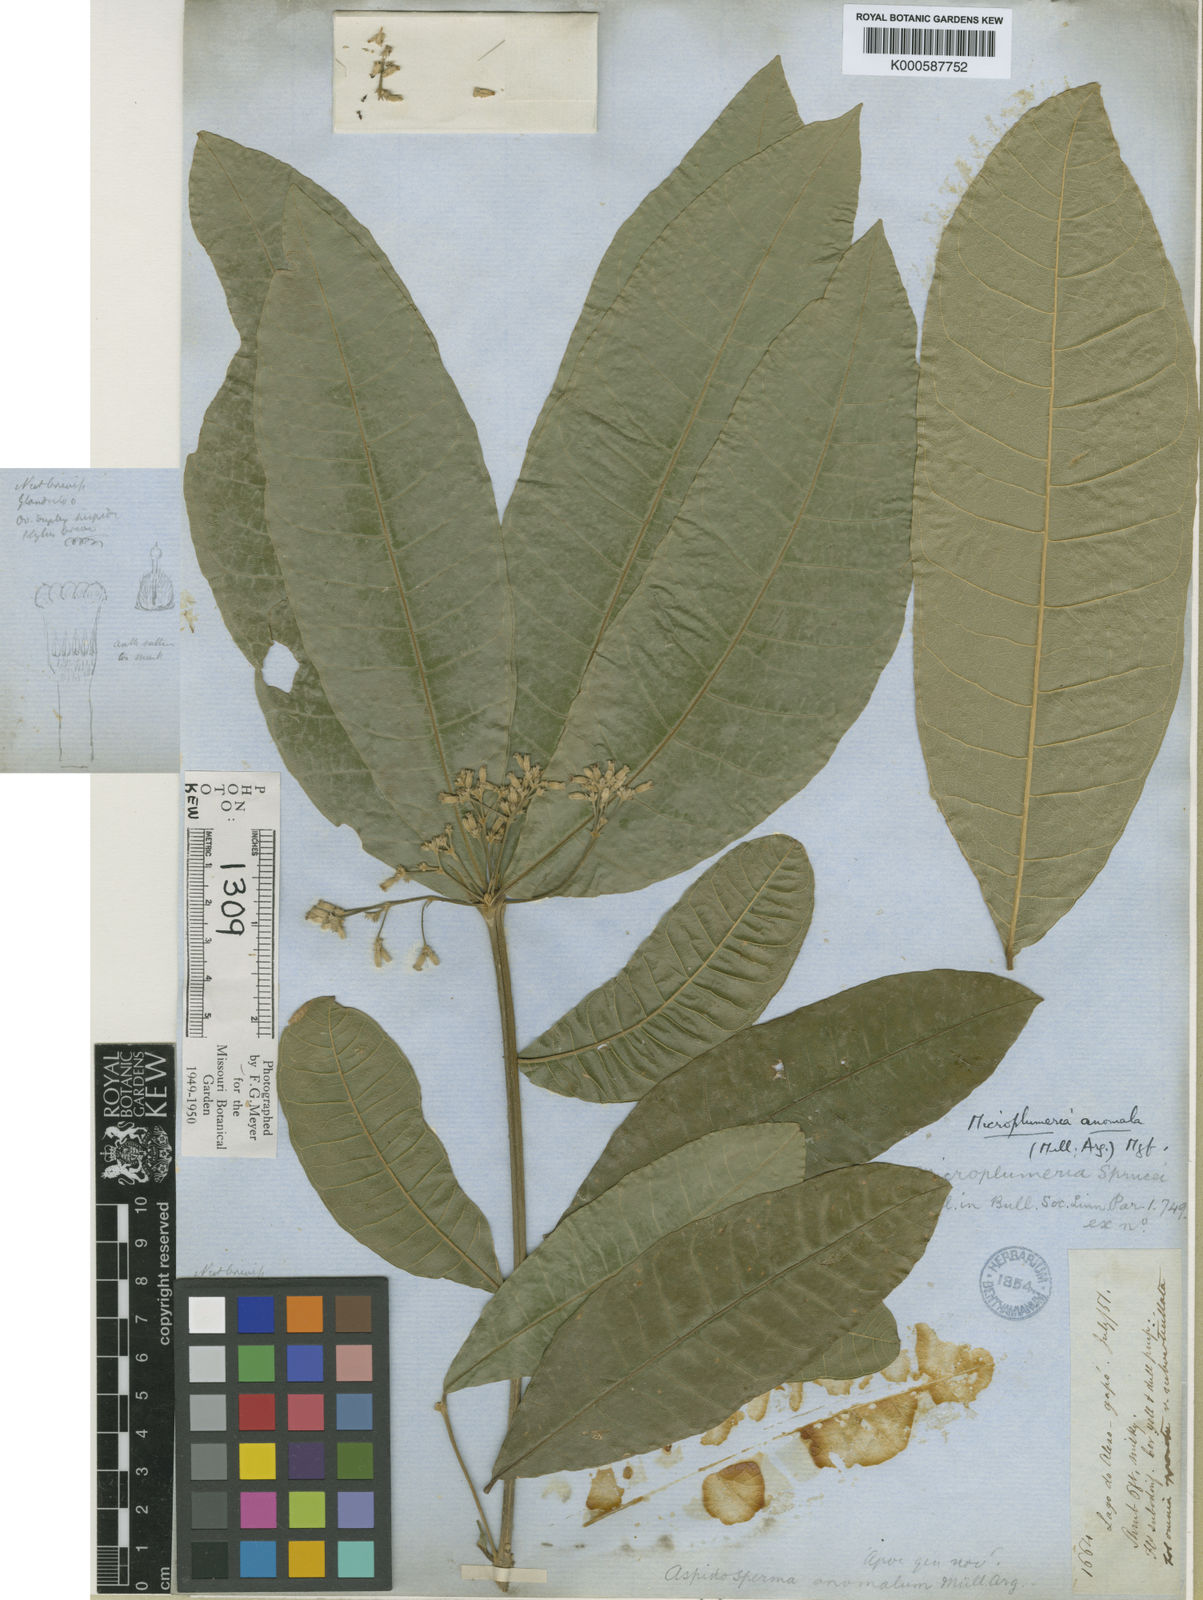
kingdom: Plantae
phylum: Tracheophyta
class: Magnoliopsida
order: Gentianales
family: Apocynaceae
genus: Microplumeria
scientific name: Microplumeria
